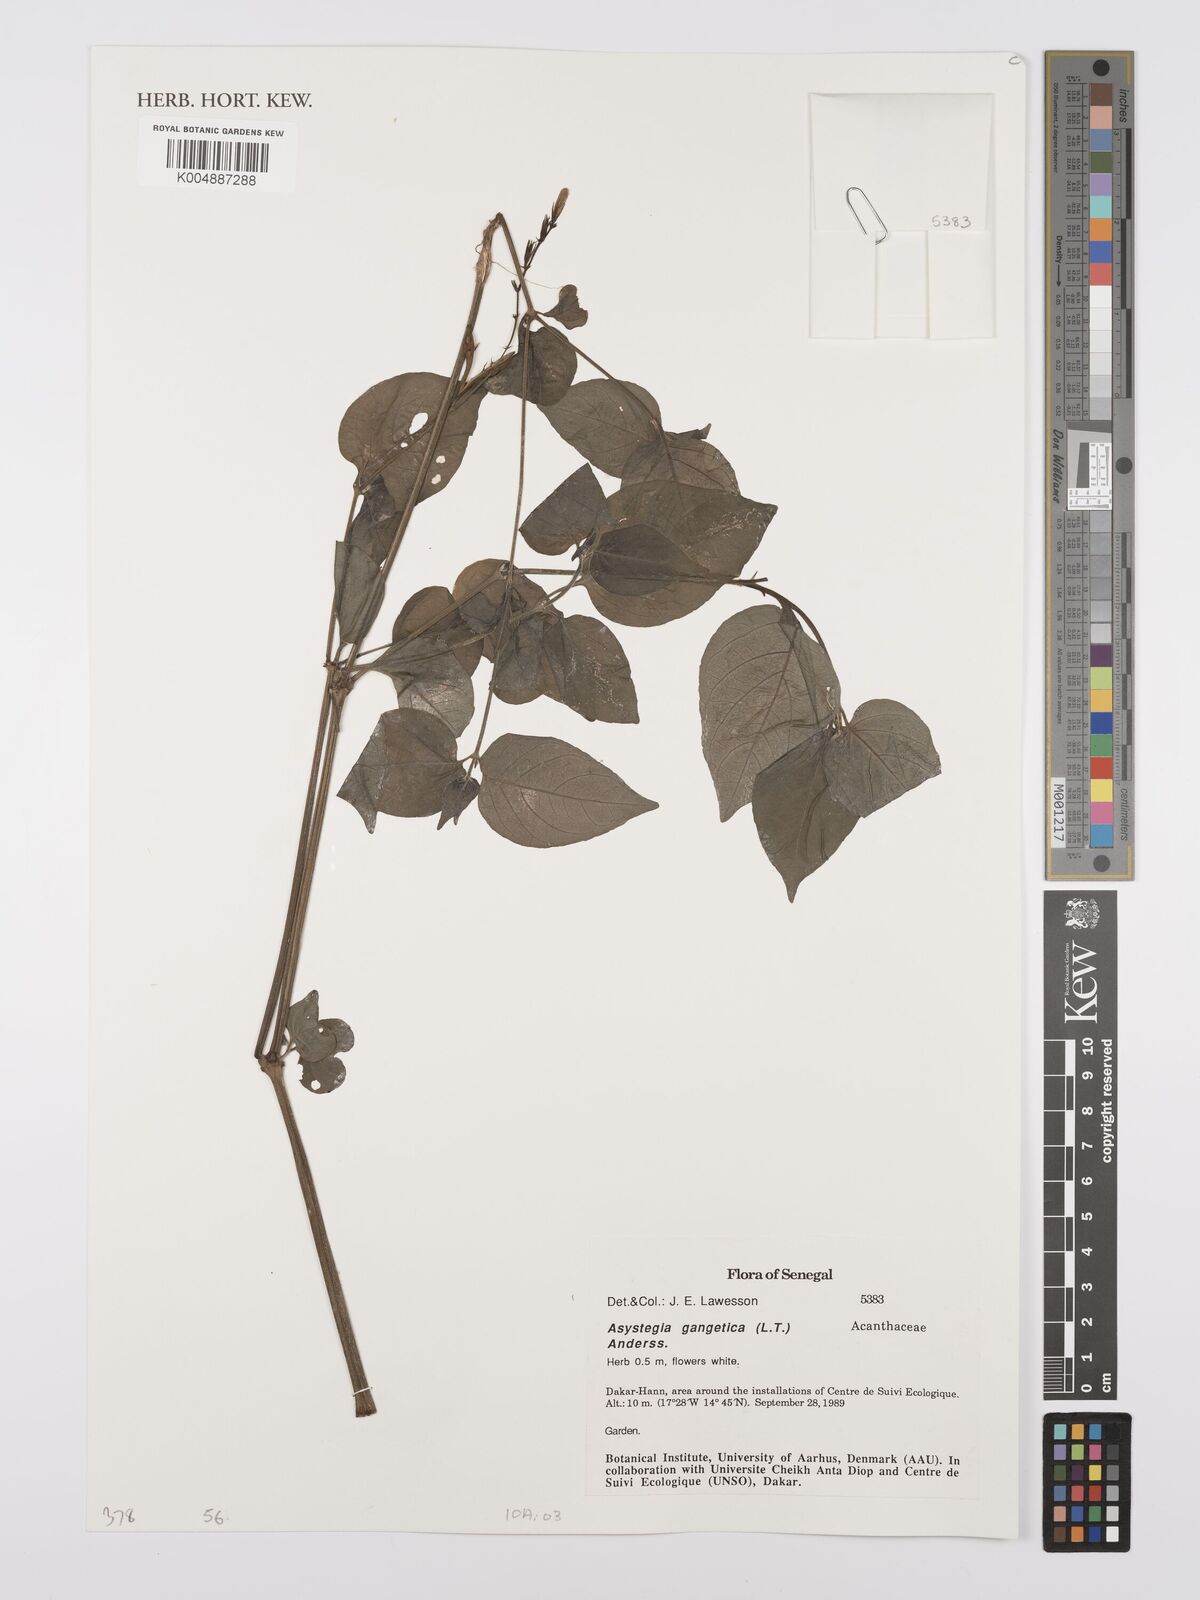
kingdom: Plantae
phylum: Tracheophyta
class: Magnoliopsida
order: Lamiales
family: Acanthaceae
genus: Asystasia
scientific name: Asystasia gangetica
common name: Chinese violet
